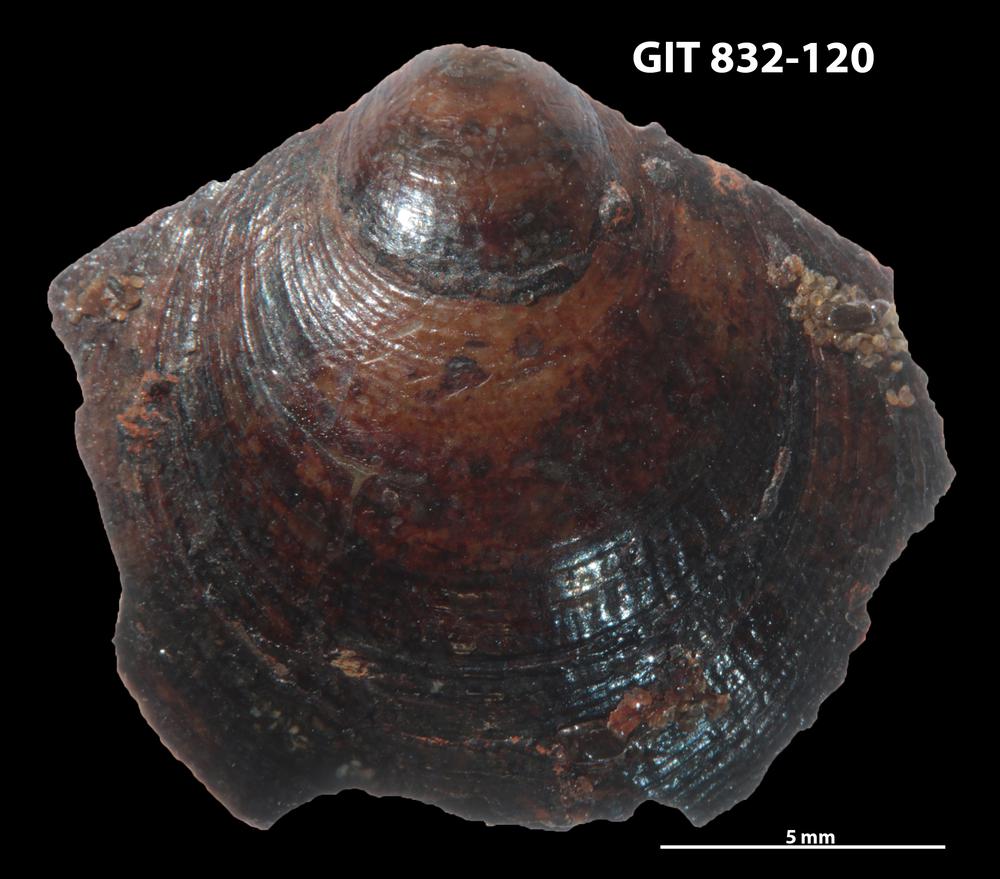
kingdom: Animalia
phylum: Brachiopoda
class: Lingulata
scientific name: Lingulata
